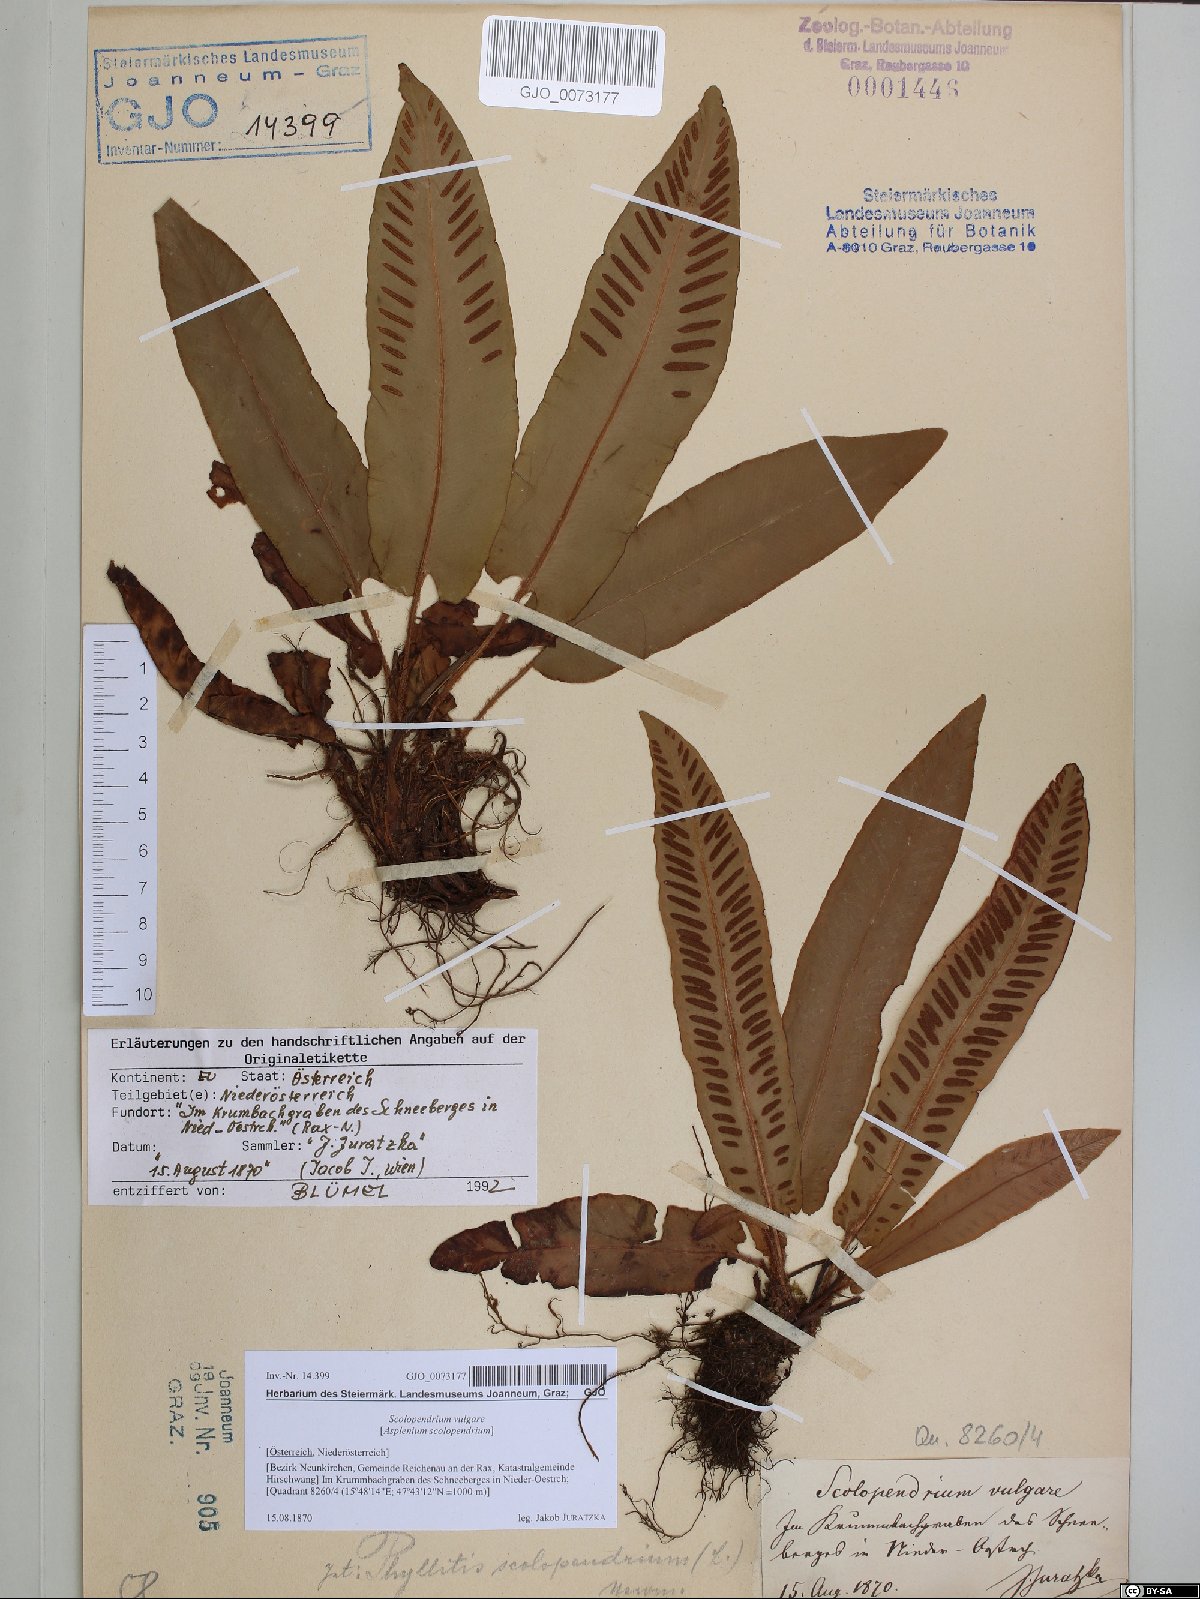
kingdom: Plantae
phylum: Tracheophyta
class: Polypodiopsida
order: Polypodiales
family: Aspleniaceae
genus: Asplenium
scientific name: Asplenium scolopendrium
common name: Hart's-tongue fern
